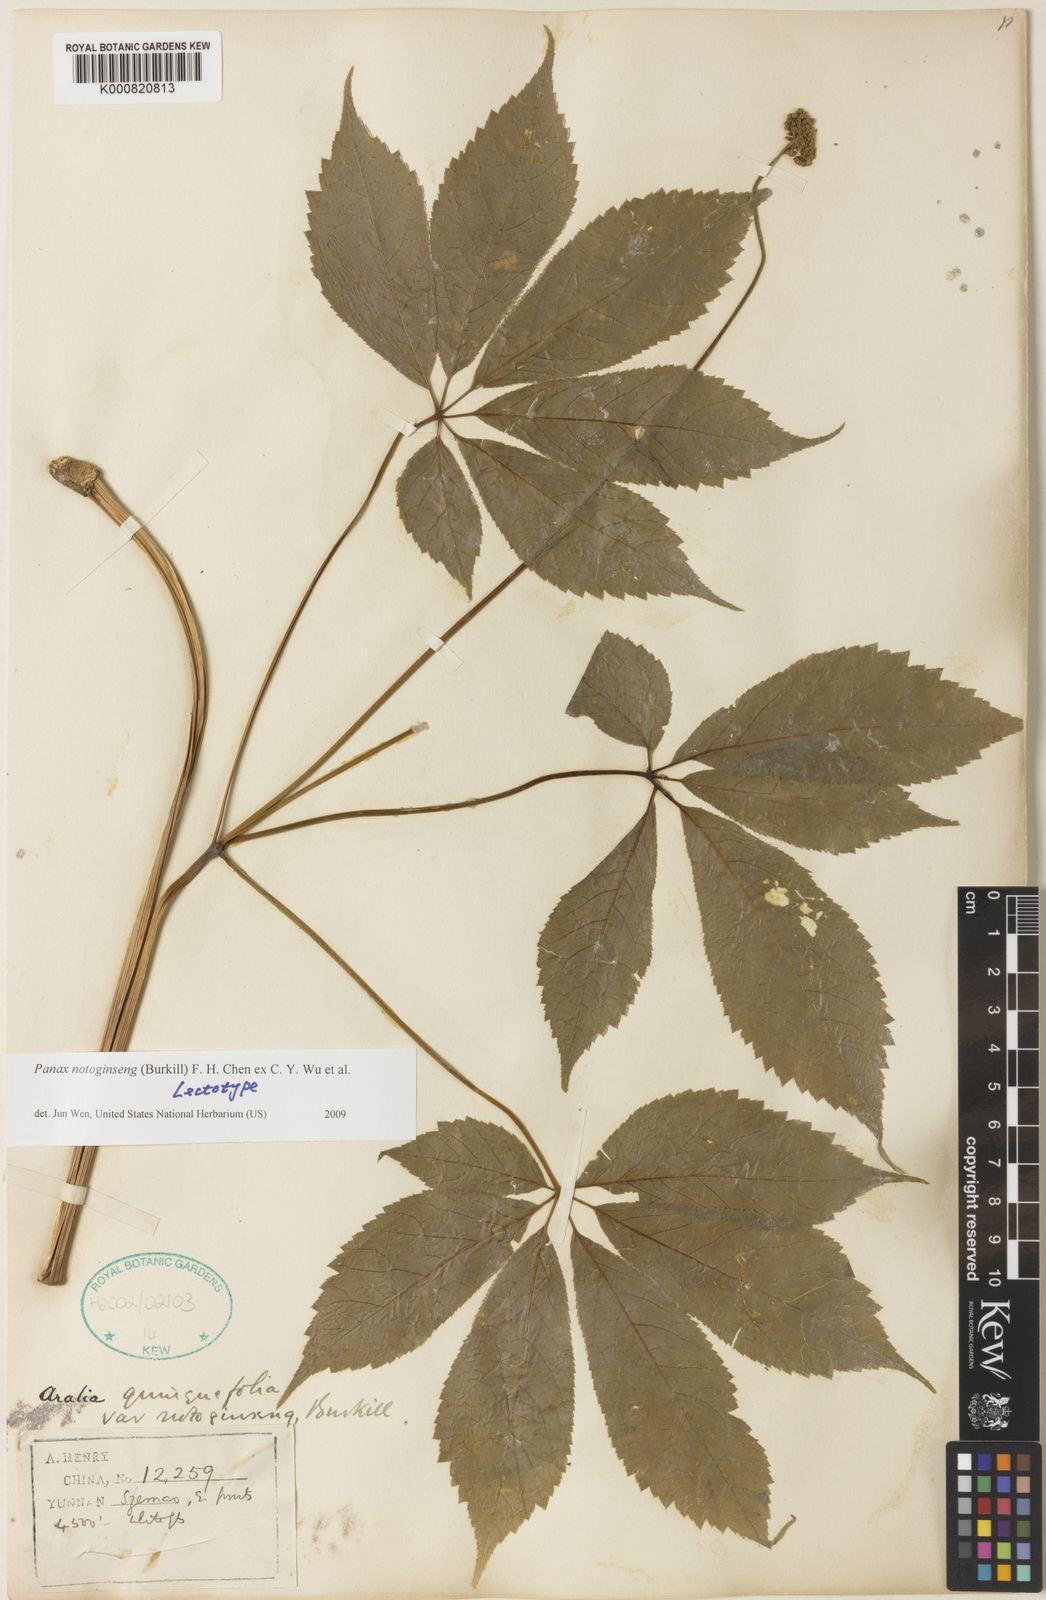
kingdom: Plantae
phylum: Tracheophyta
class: Magnoliopsida
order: Apiales
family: Araliaceae
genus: Panax
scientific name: Panax
